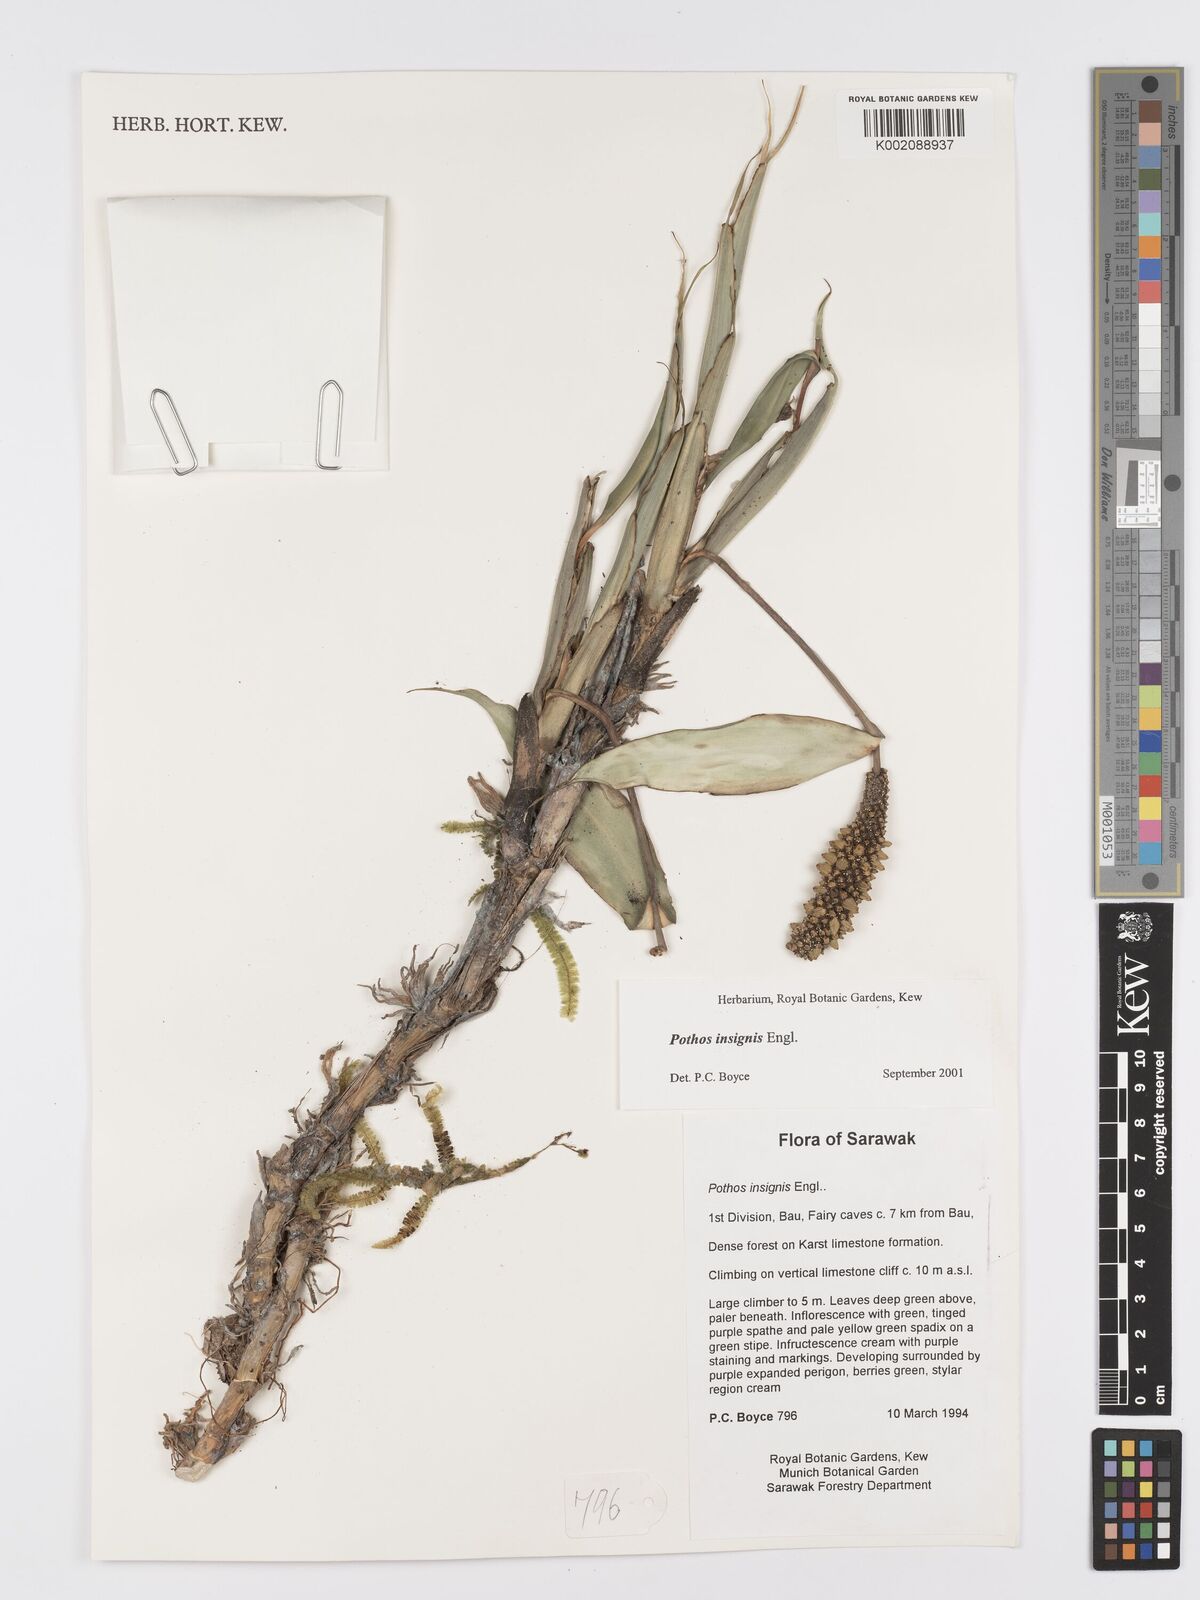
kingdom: Plantae
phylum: Tracheophyta
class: Liliopsida
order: Alismatales
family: Araceae
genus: Pothos
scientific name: Pothos insignis
